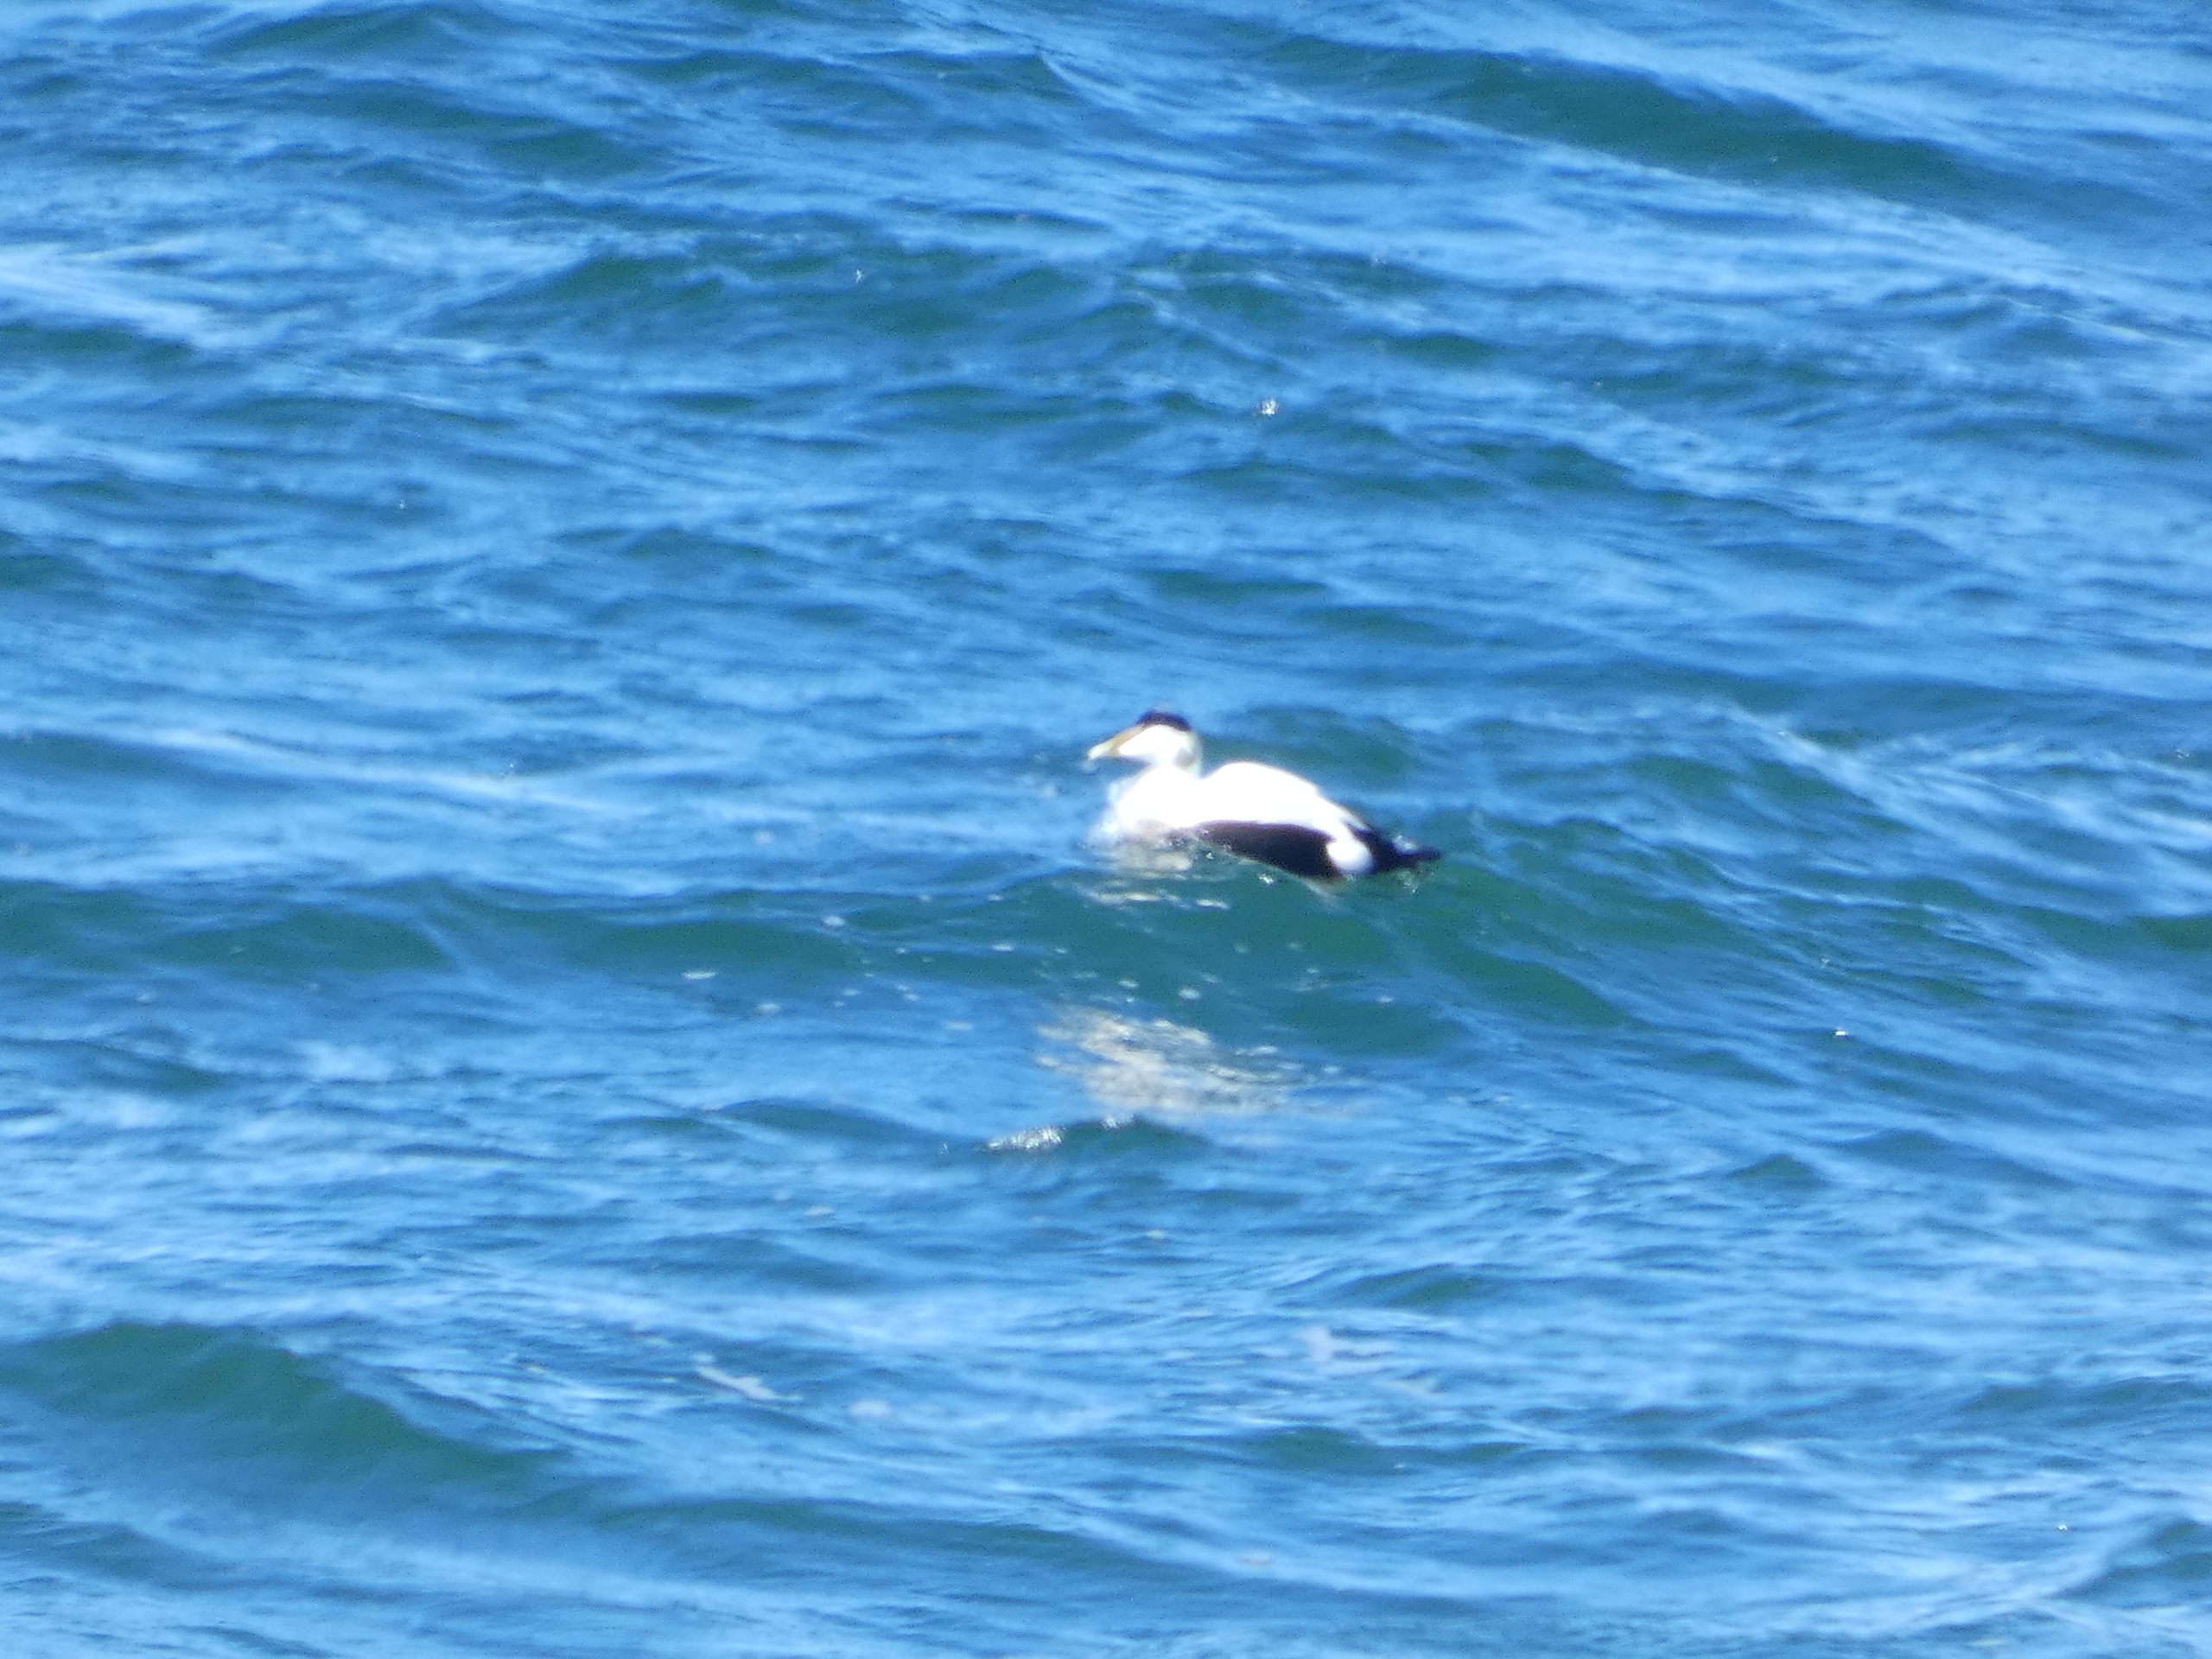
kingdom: Animalia
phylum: Chordata
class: Aves
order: Anseriformes
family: Anatidae
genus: Somateria
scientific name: Somateria mollissima
